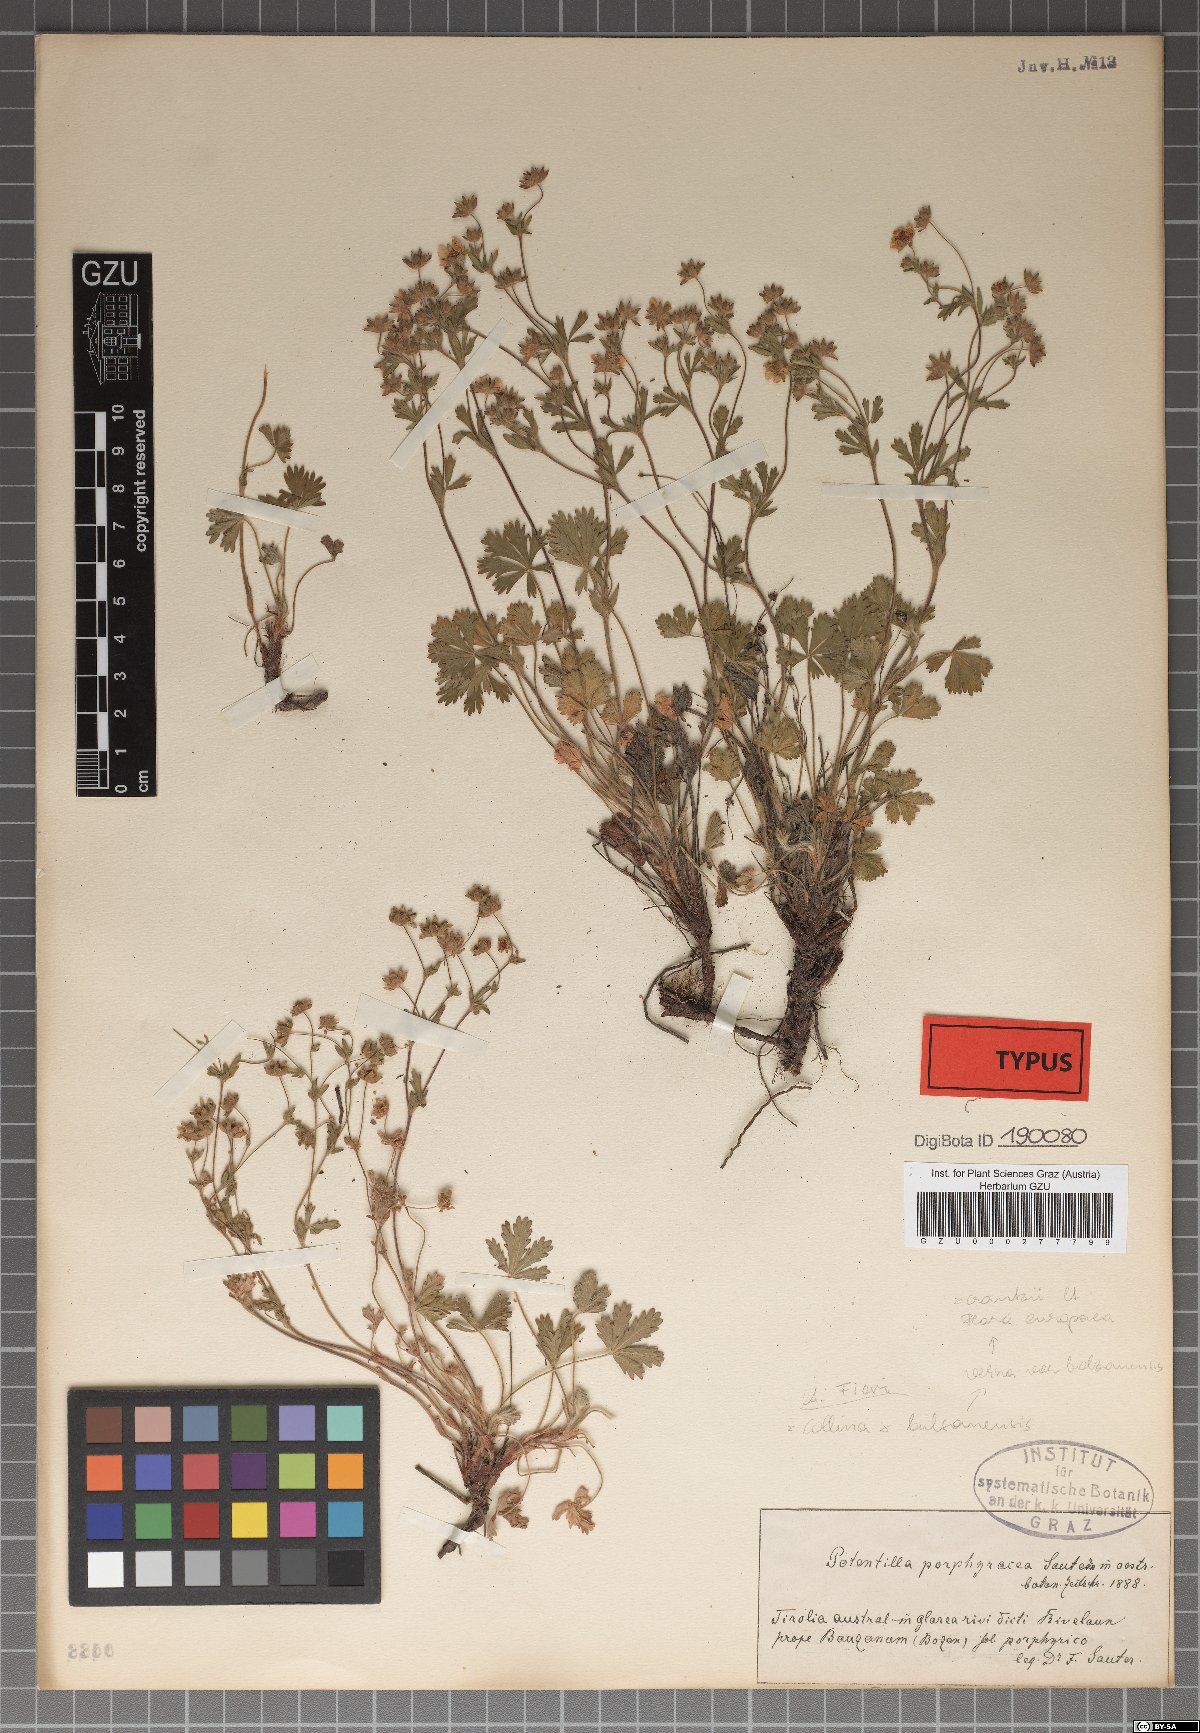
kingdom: Plantae
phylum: Tracheophyta
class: Magnoliopsida
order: Rosales
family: Rosaceae
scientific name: Rosaceae
